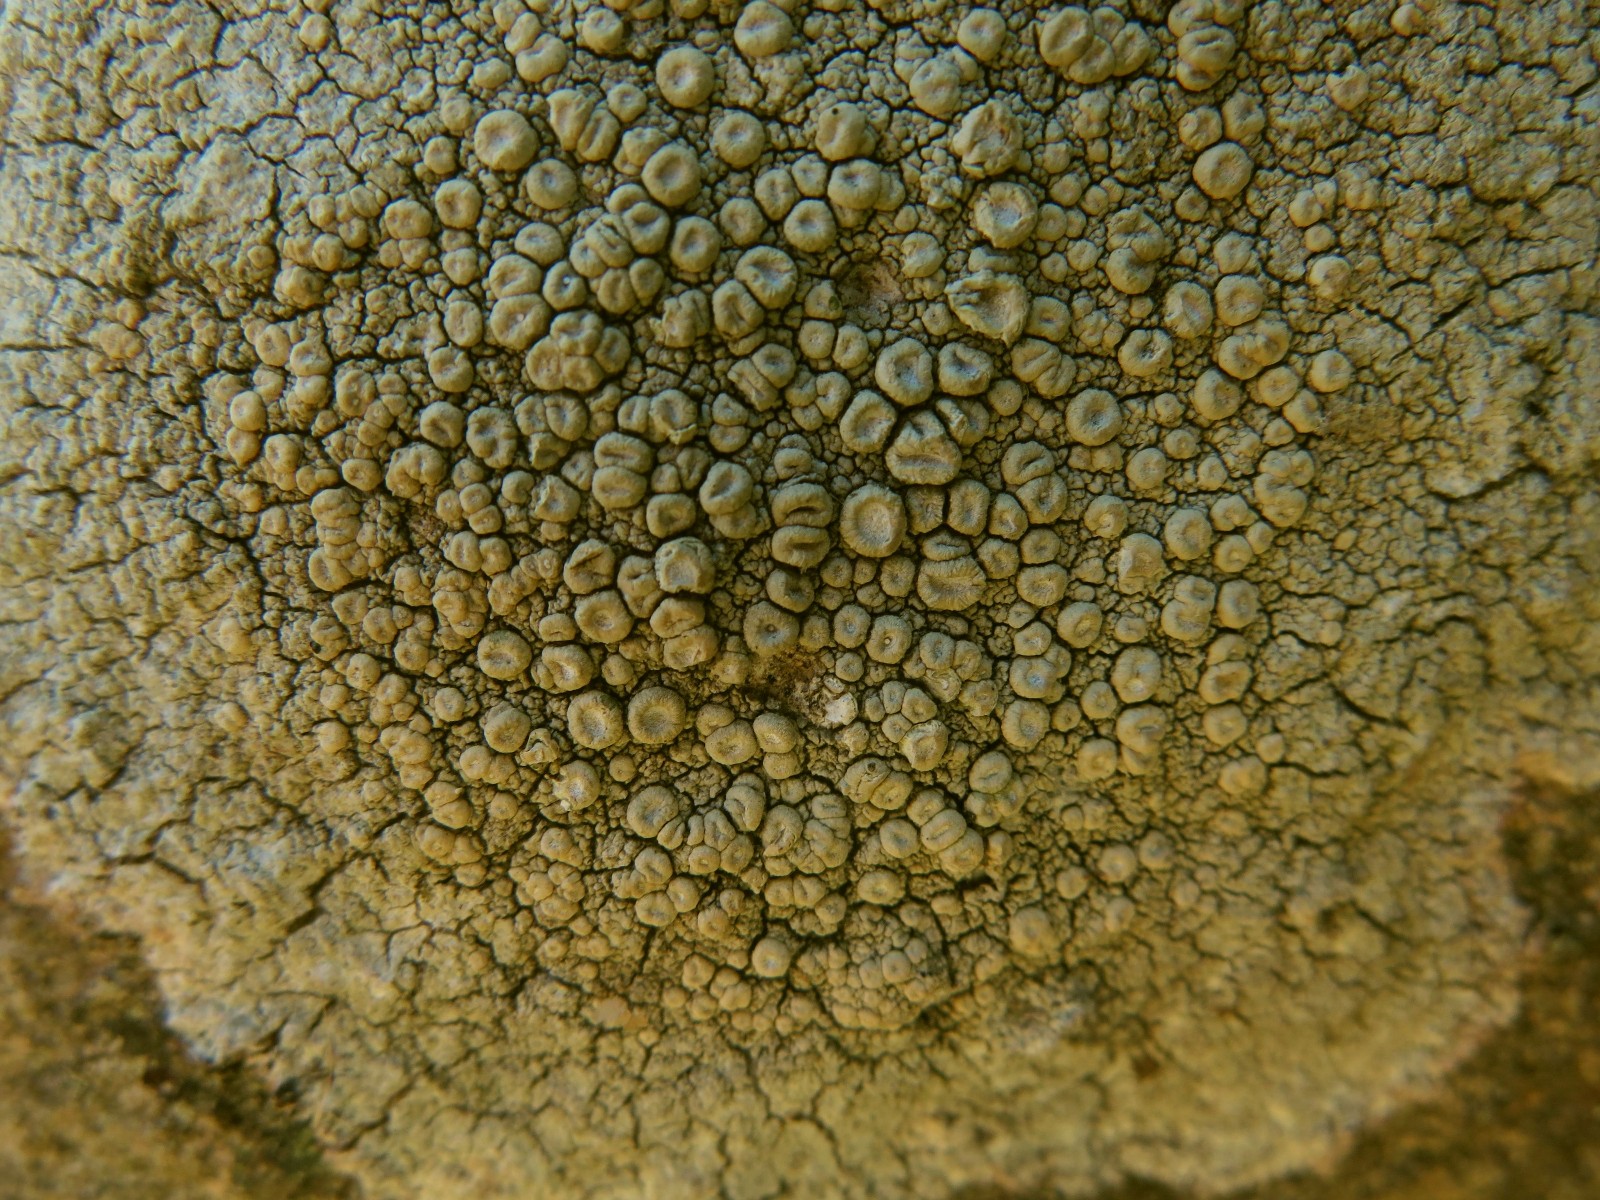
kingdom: Fungi
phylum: Ascomycota
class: Lecanoromycetes
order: Pertusariales
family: Ochrolechiaceae
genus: Ochrolechia
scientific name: Ochrolechia parella
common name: almindelig blegskivelav
